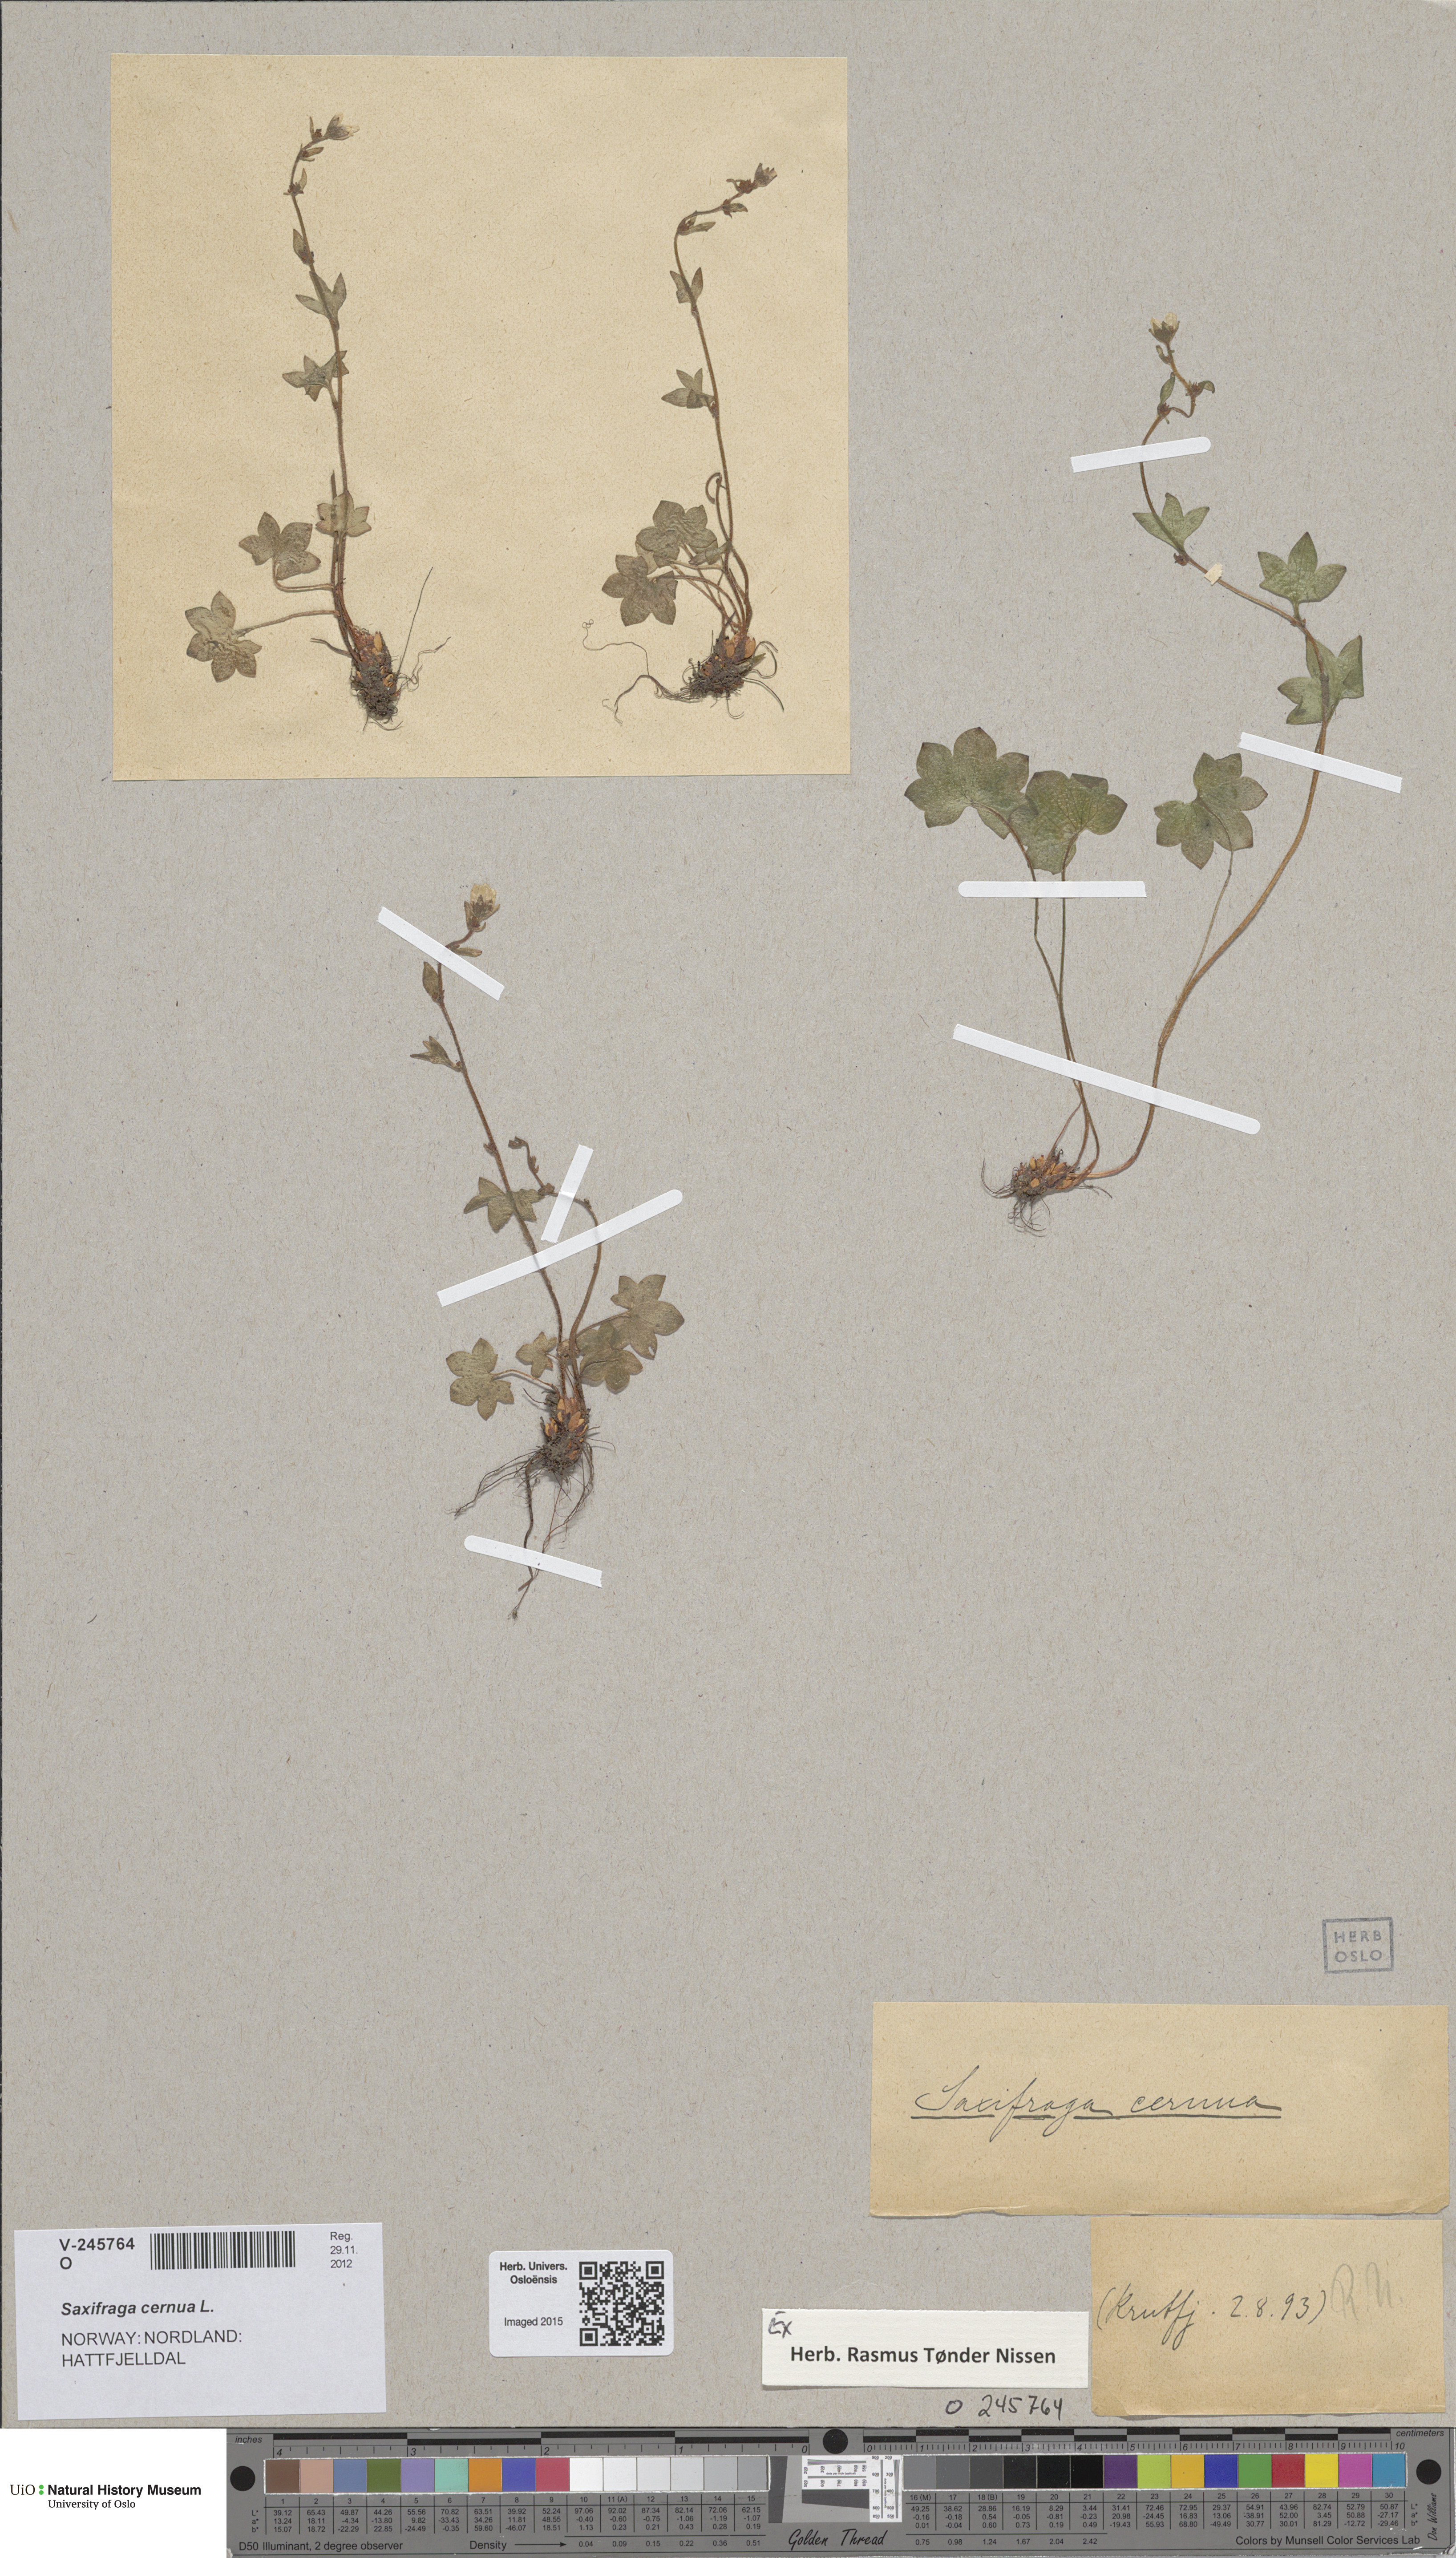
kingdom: Plantae
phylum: Tracheophyta
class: Magnoliopsida
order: Saxifragales
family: Saxifragaceae
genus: Saxifraga
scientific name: Saxifraga cernua
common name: Drooping saxifrage
